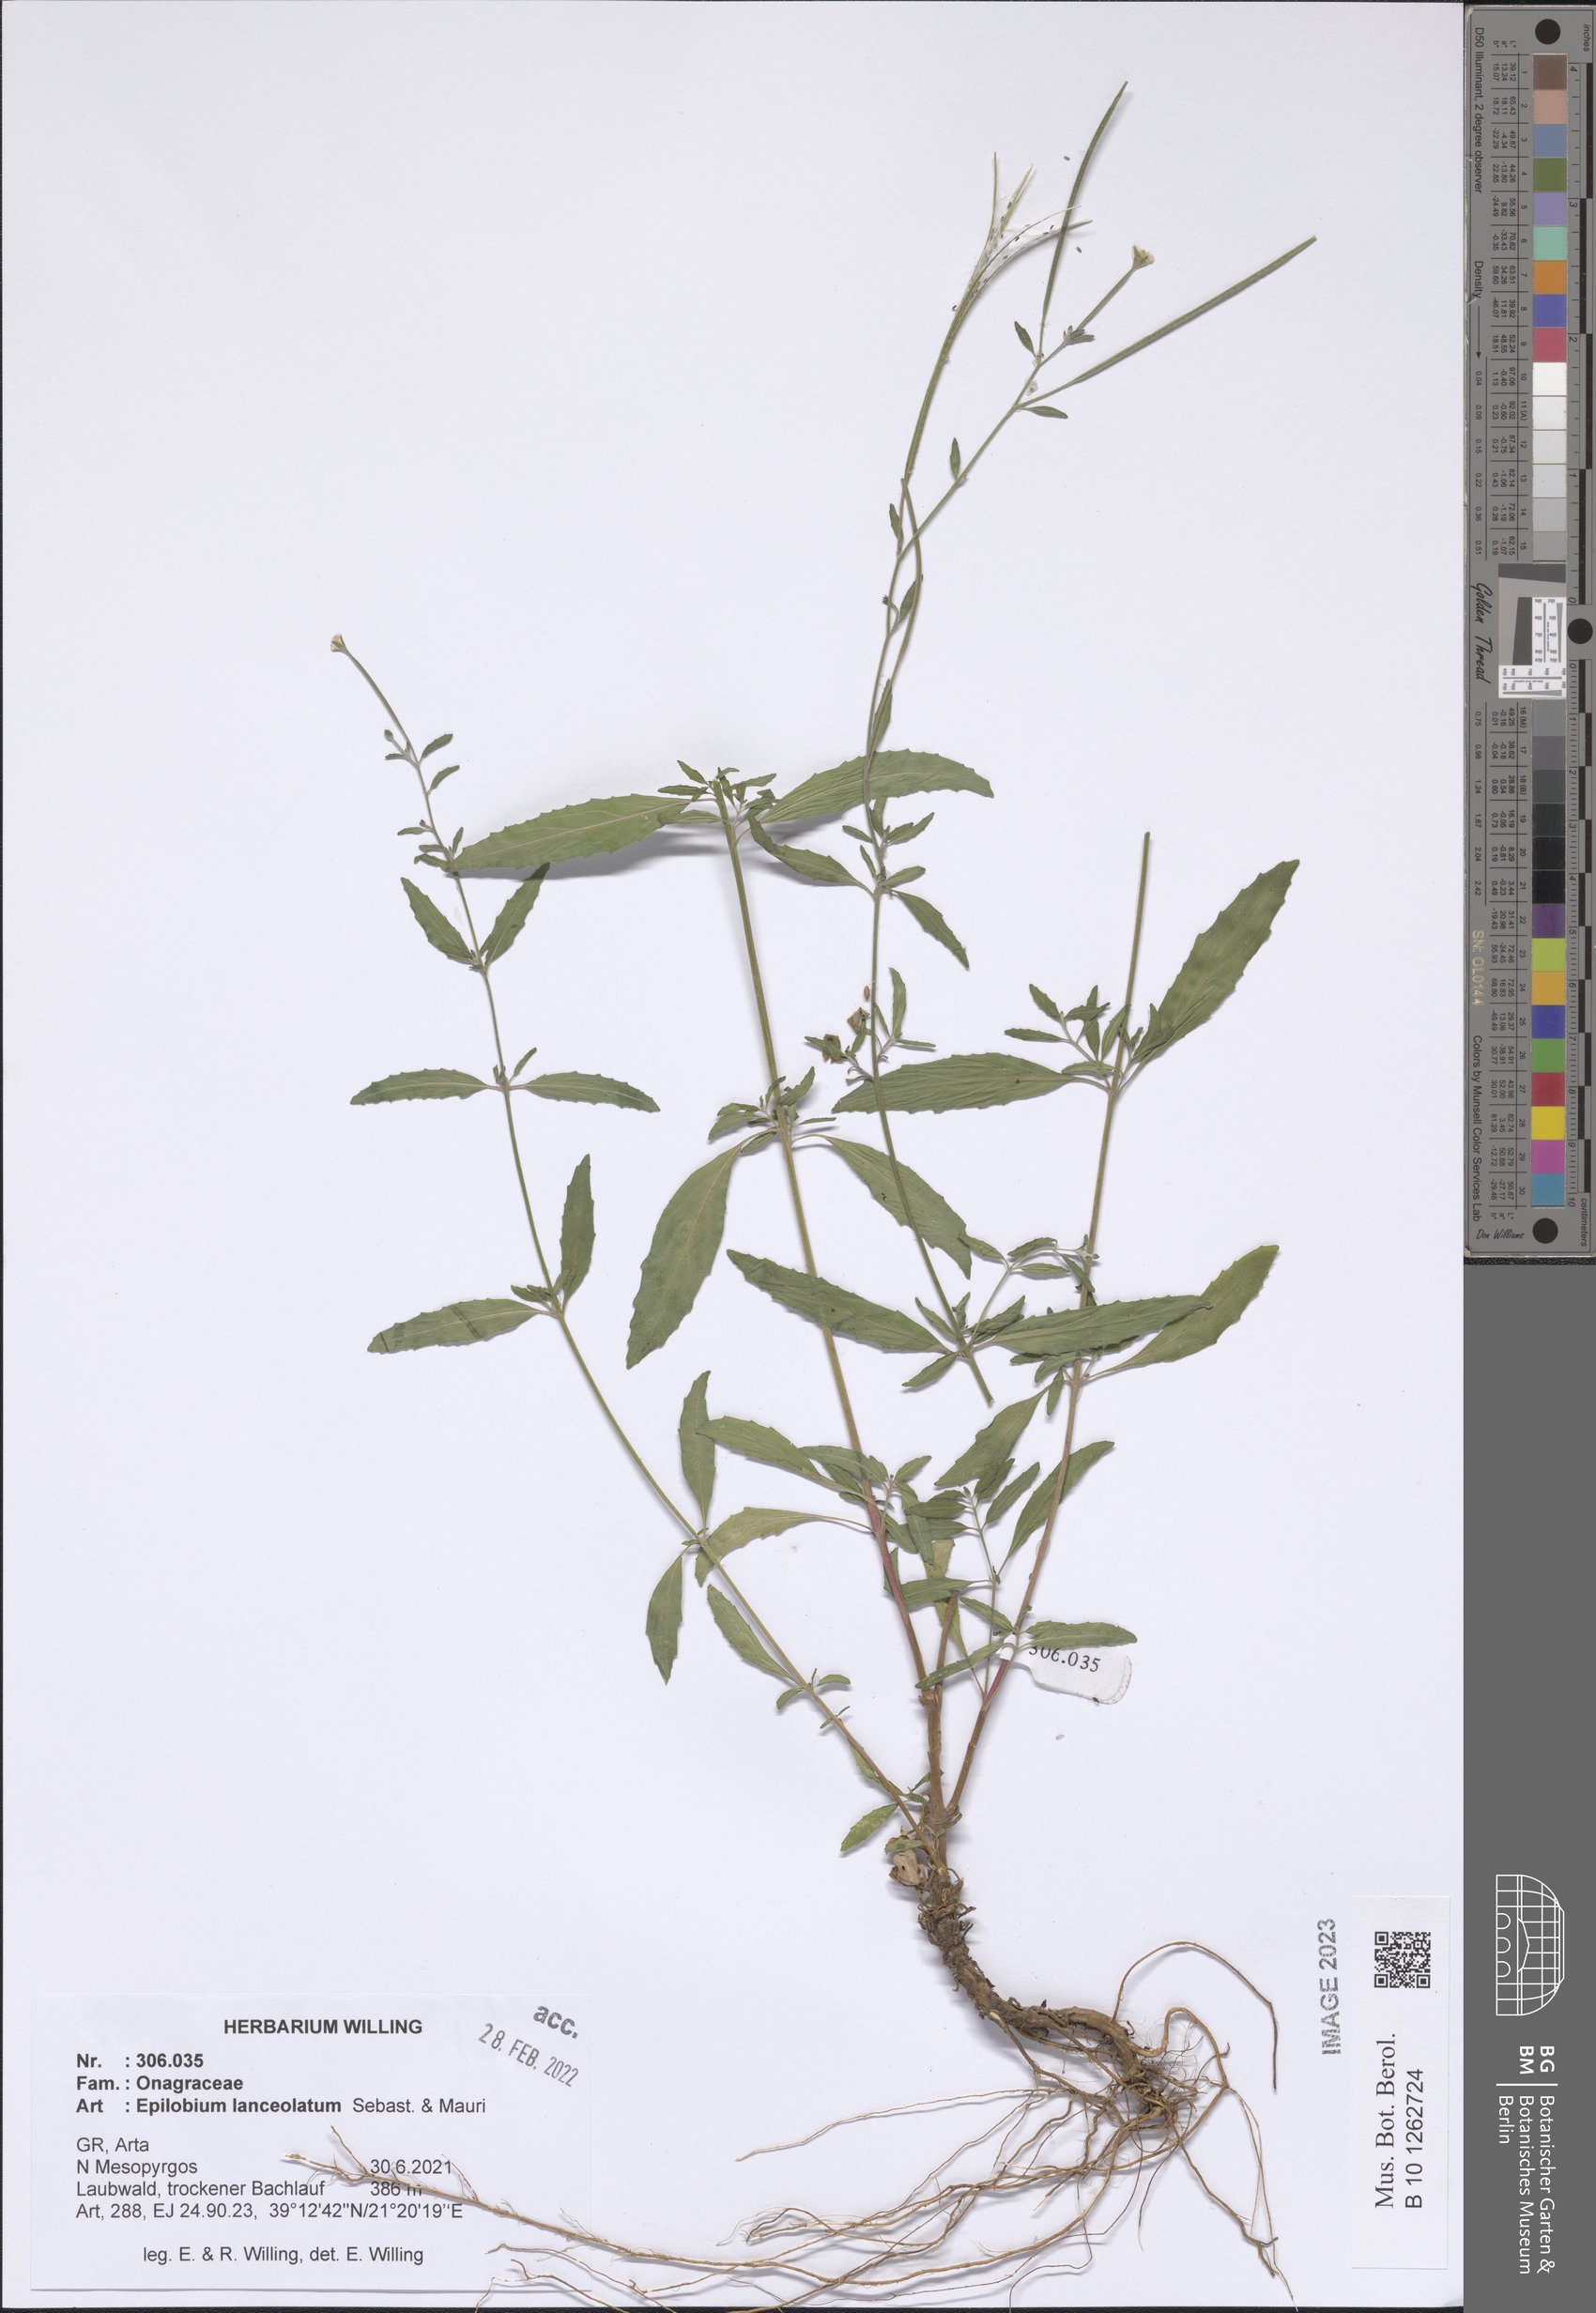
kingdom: Plantae
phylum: Tracheophyta
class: Magnoliopsida
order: Myrtales
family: Onagraceae
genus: Epilobium
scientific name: Epilobium lanceolatum
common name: Spear-leaved willowherb
